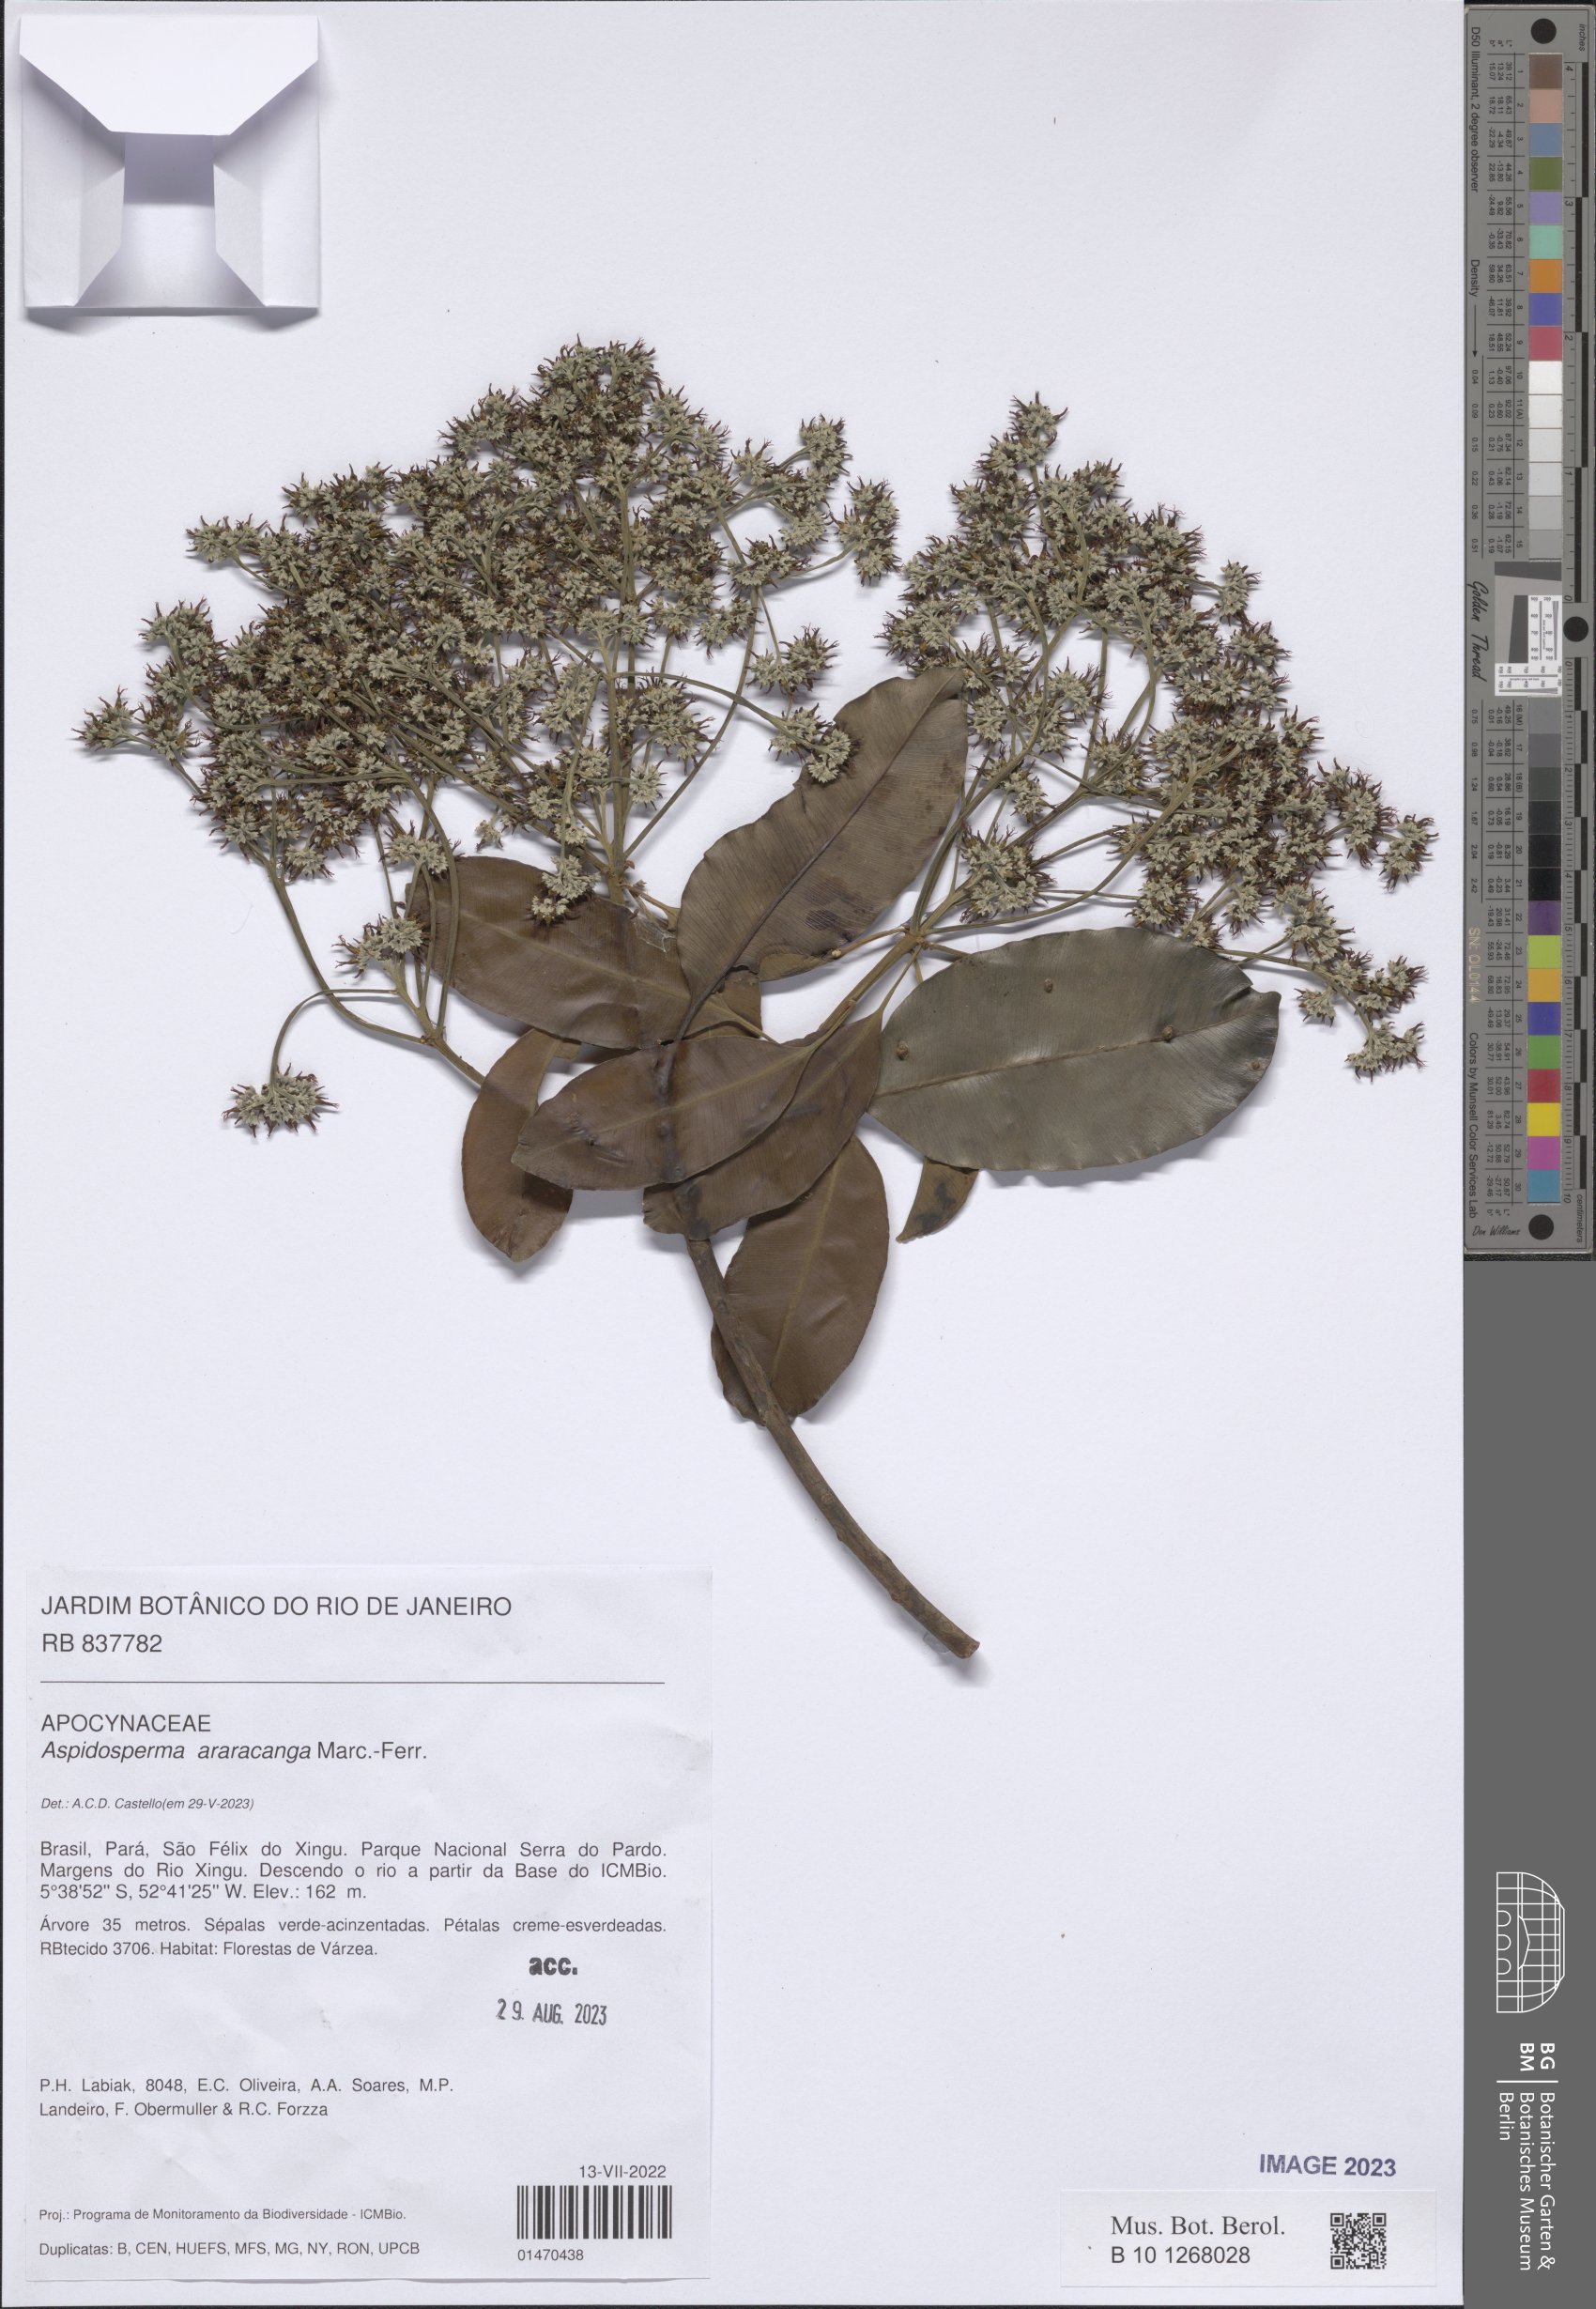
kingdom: Plantae
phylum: Tracheophyta
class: Magnoliopsida
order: Gentianales
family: Apocynaceae
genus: Aspidosperma
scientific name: Aspidosperma araracanga
